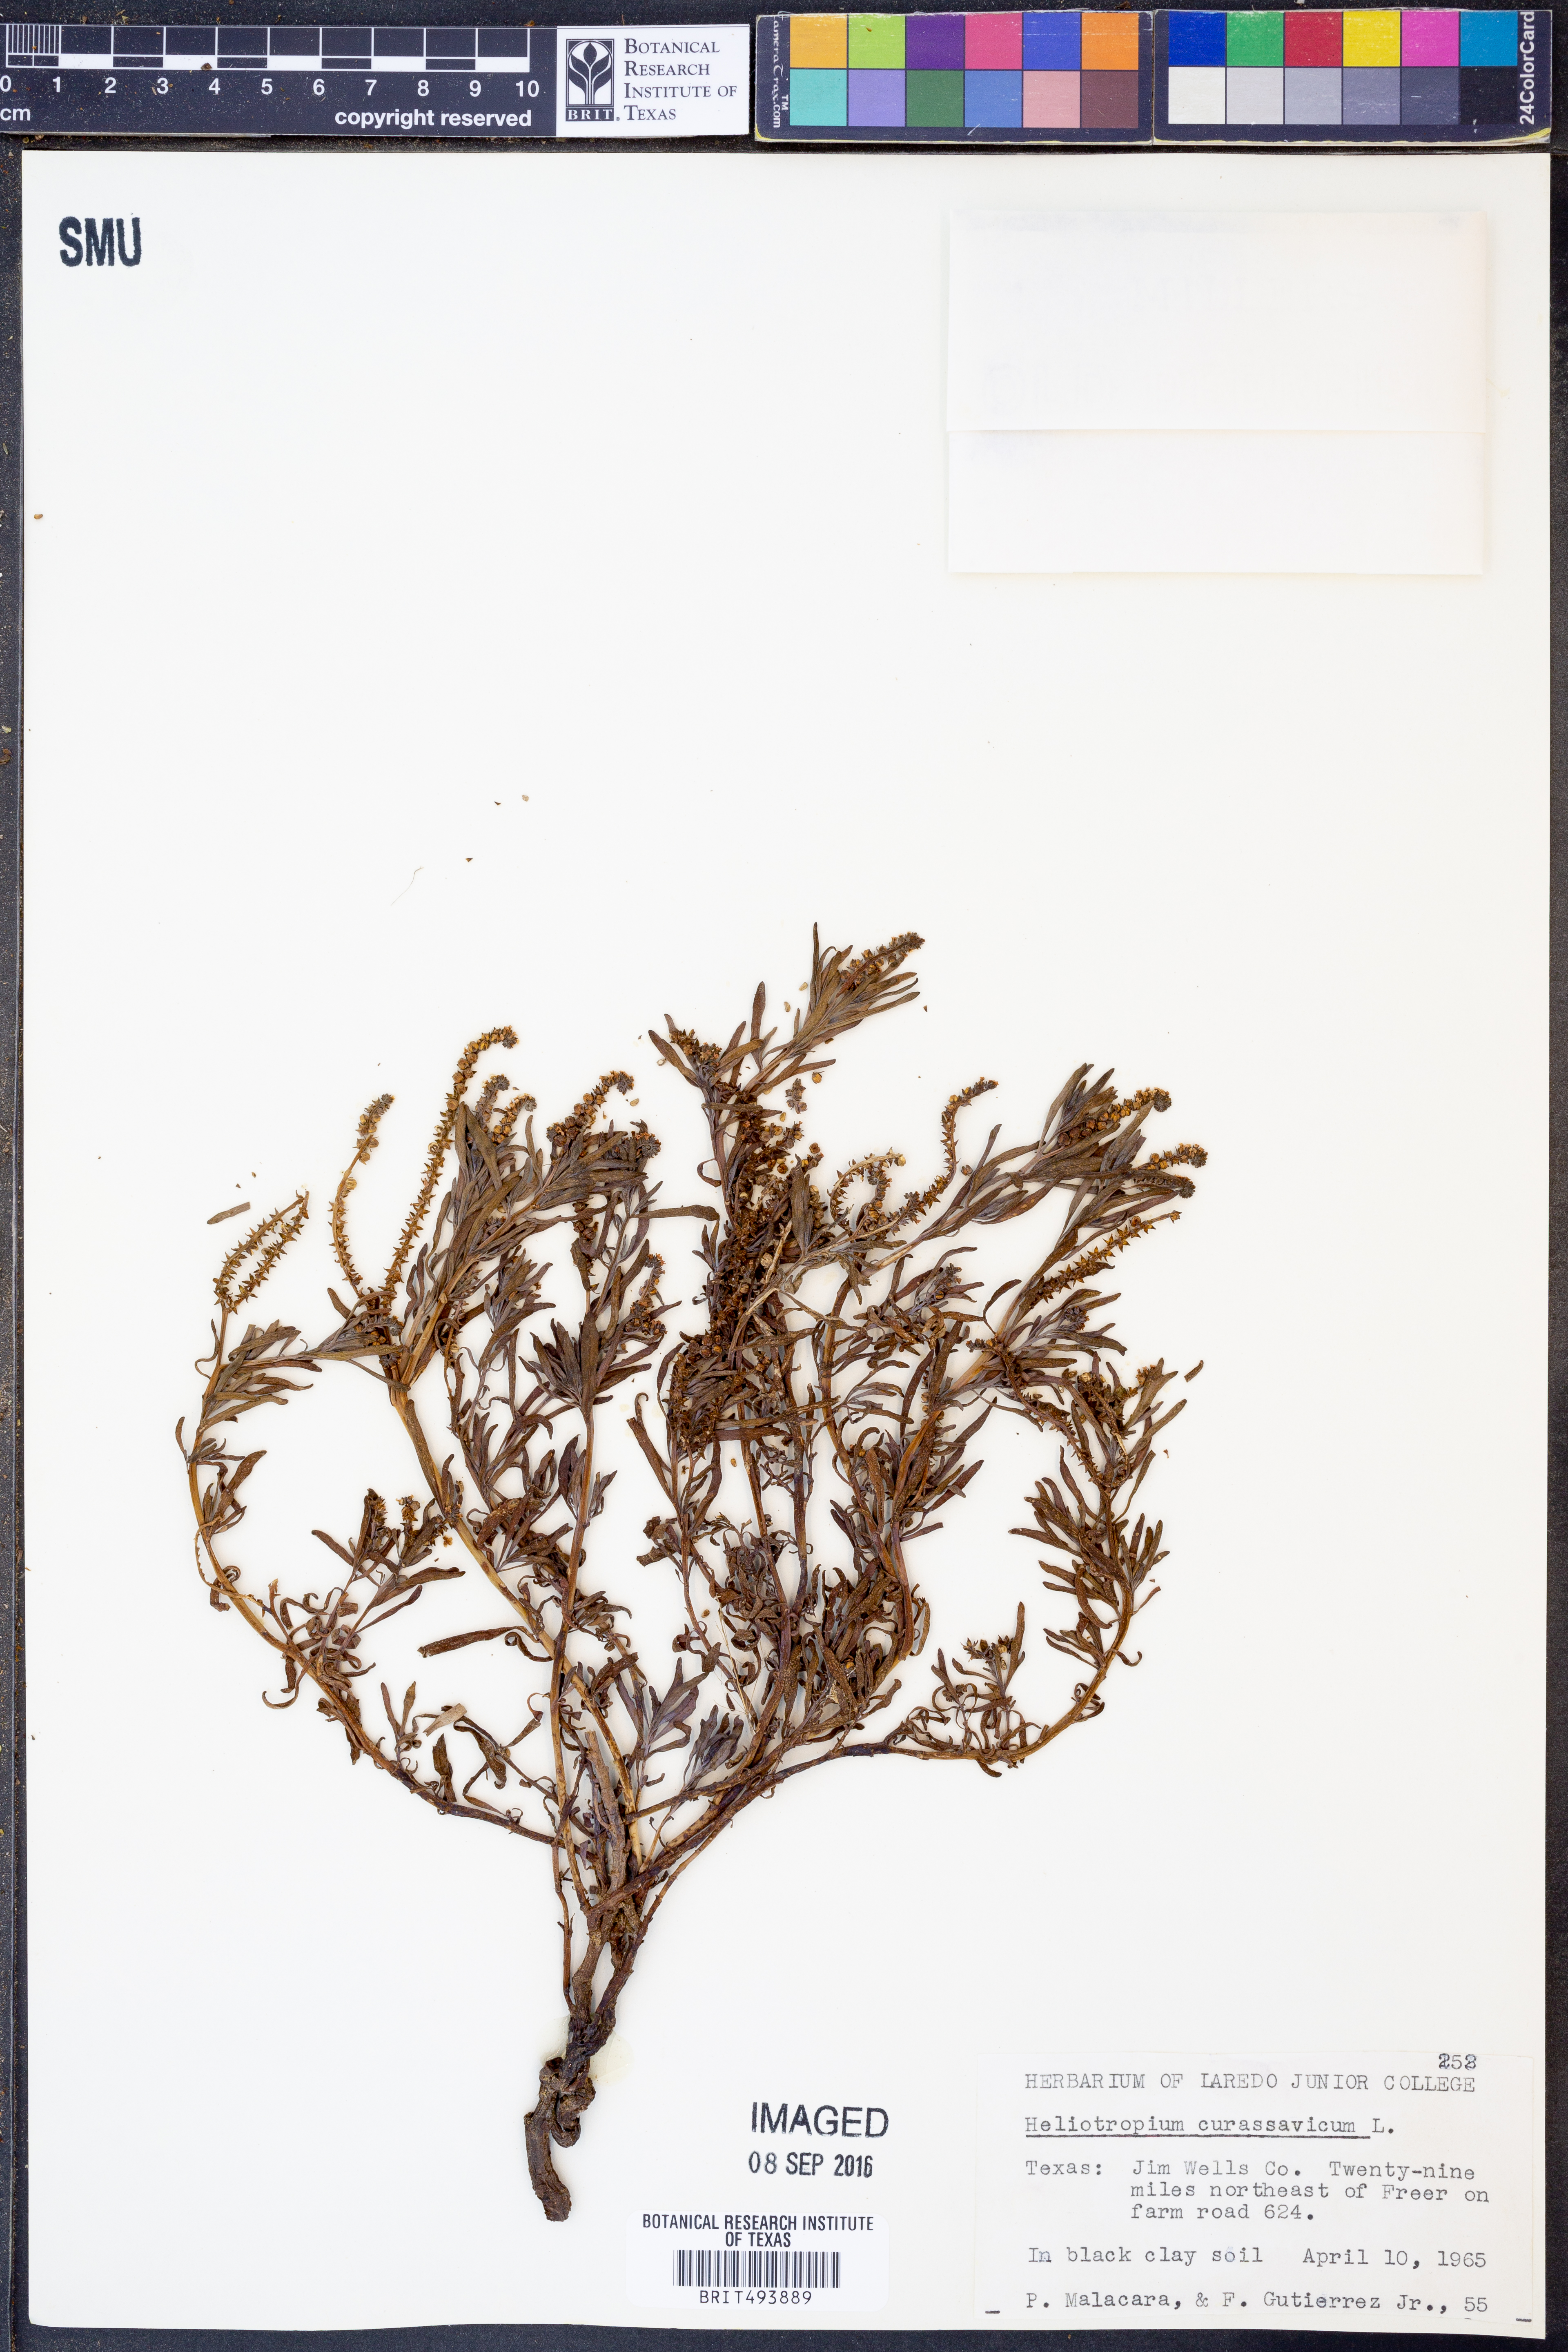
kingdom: Plantae
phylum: Tracheophyta
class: Magnoliopsida
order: Boraginales
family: Heliotropiaceae
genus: Heliotropium
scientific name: Heliotropium curassavicum
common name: Seaside heliotrope
